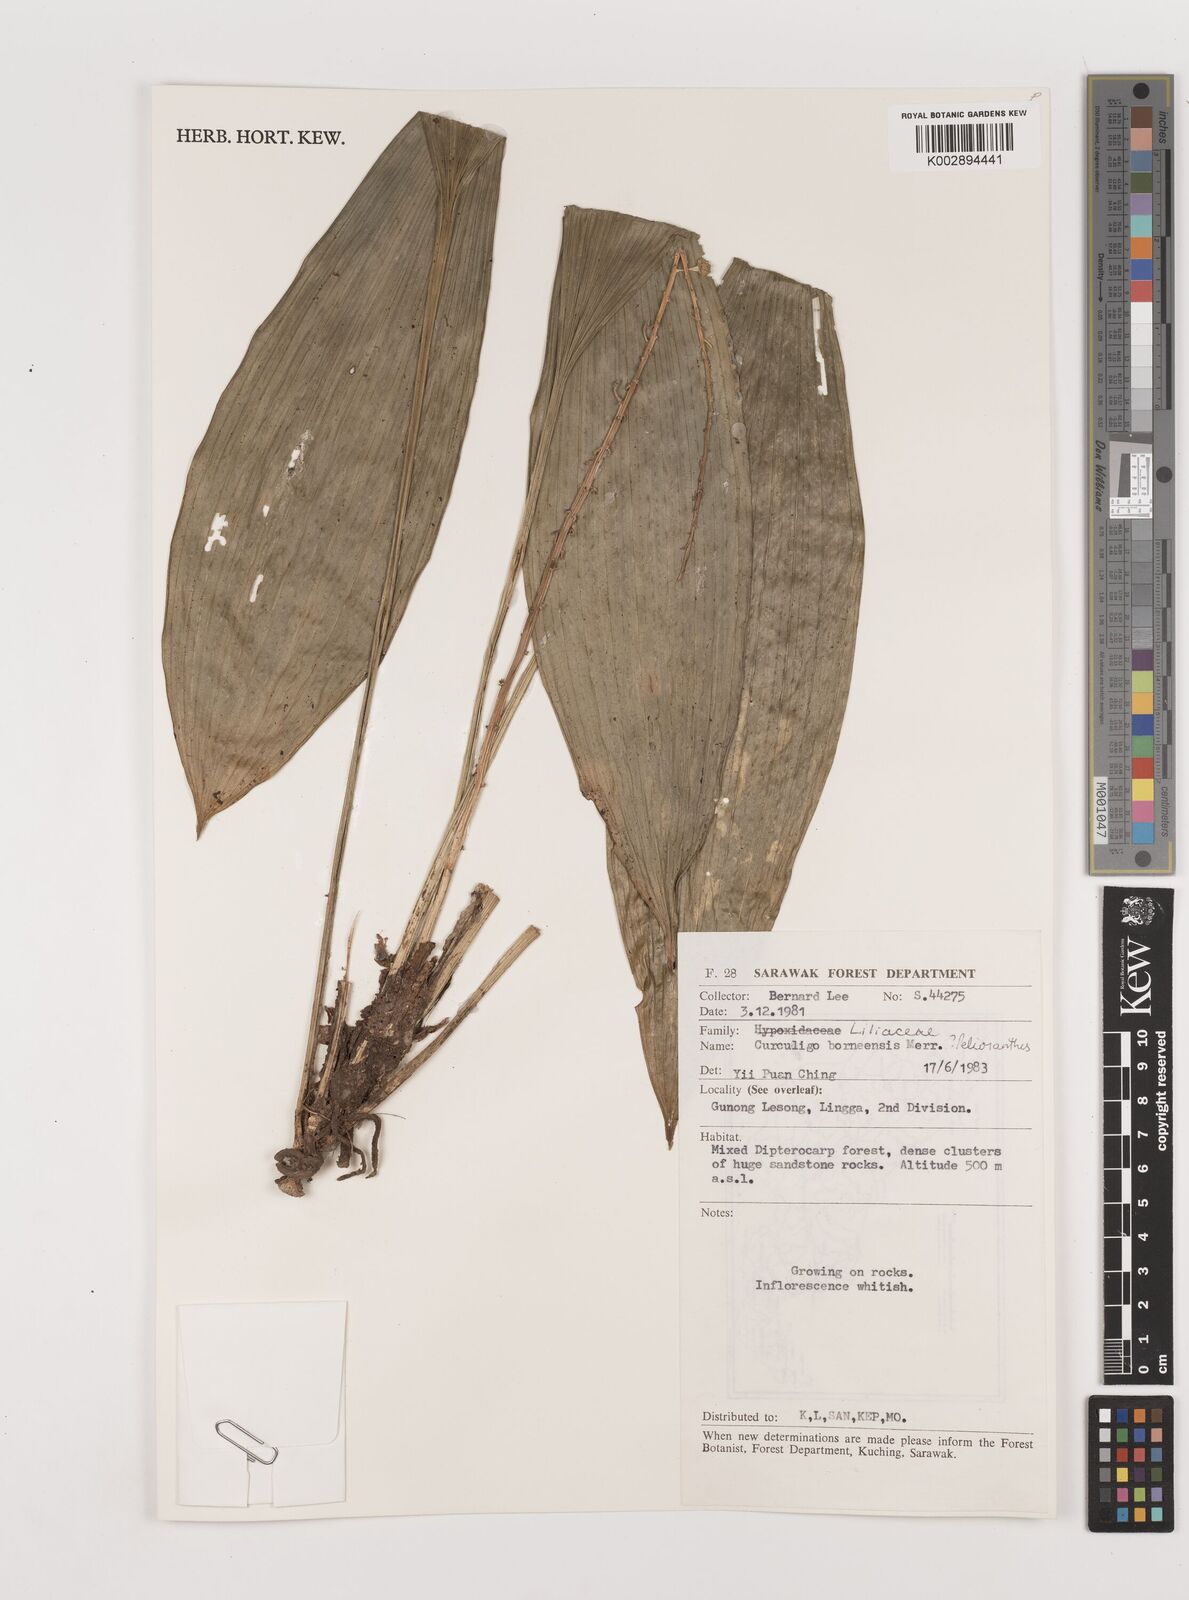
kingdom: Plantae
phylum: Tracheophyta
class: Liliopsida
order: Asparagales
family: Asparagaceae
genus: Peliosanthes
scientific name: Peliosanthes teta
